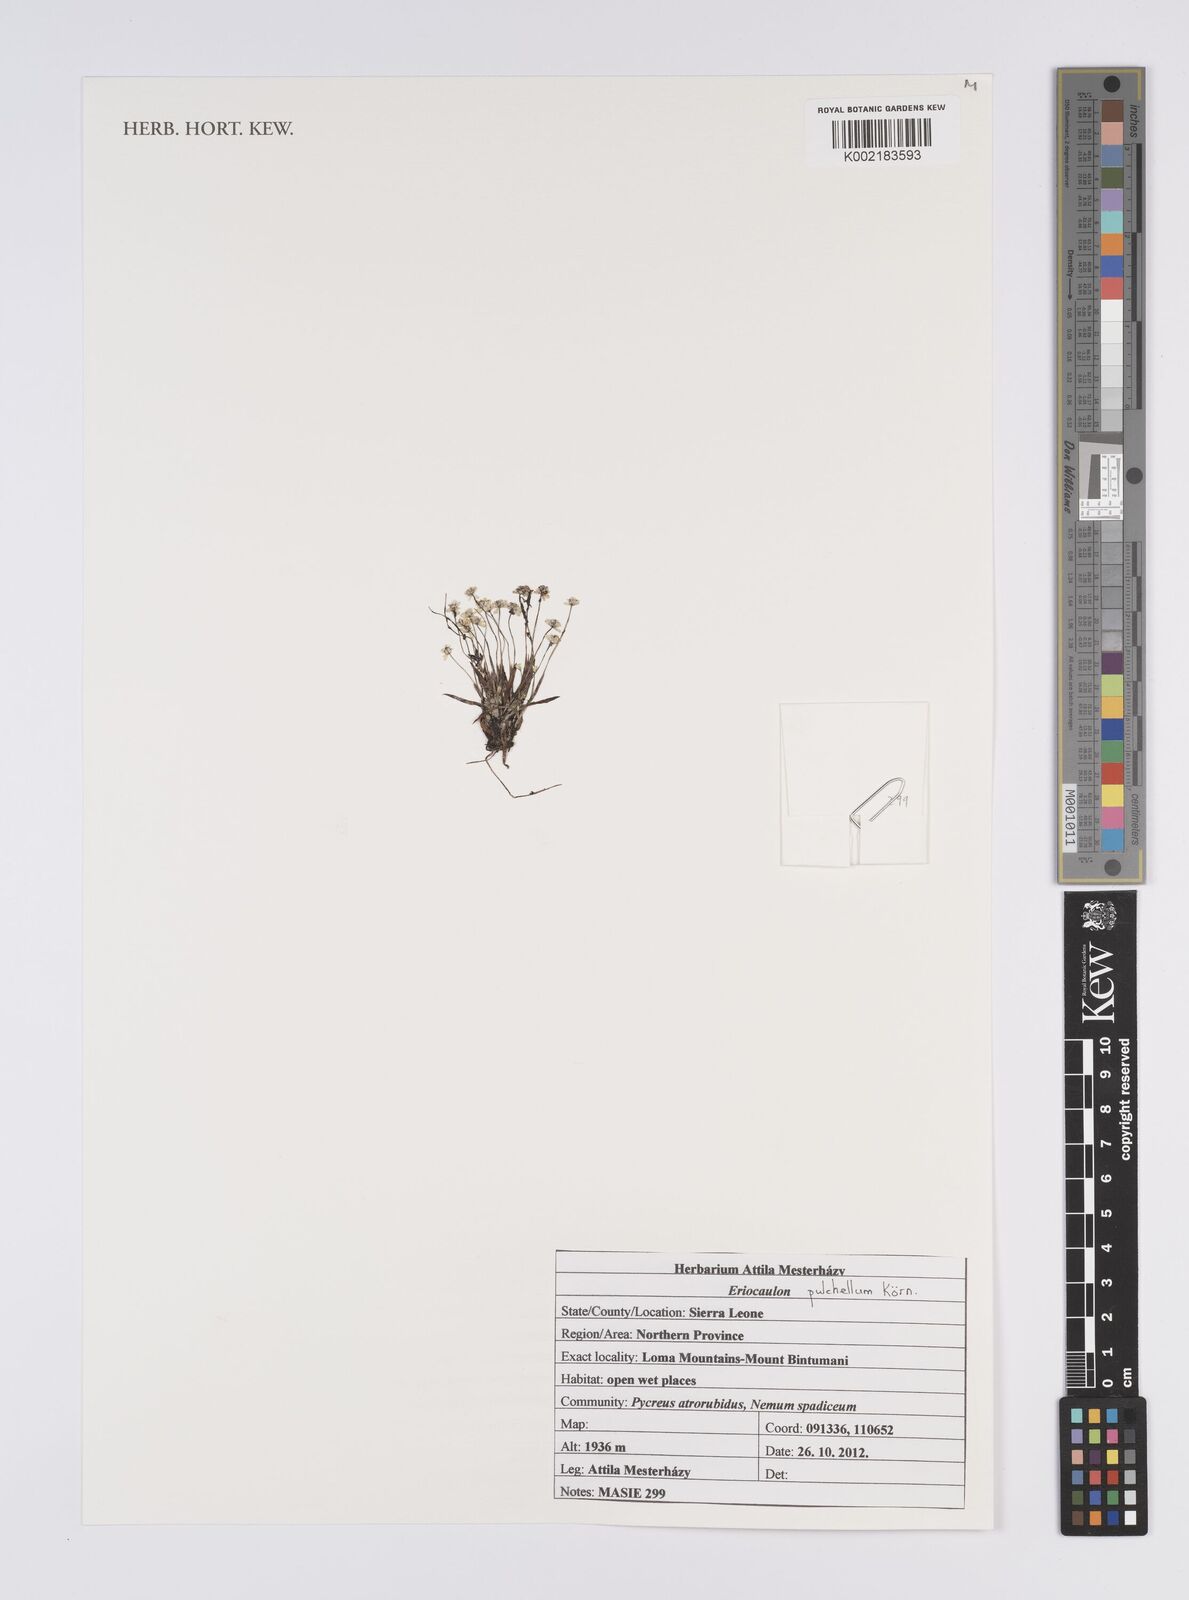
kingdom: Plantae
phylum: Tracheophyta
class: Liliopsida
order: Poales
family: Eriocaulaceae
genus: Eriocaulon
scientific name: Eriocaulon pulchellum
